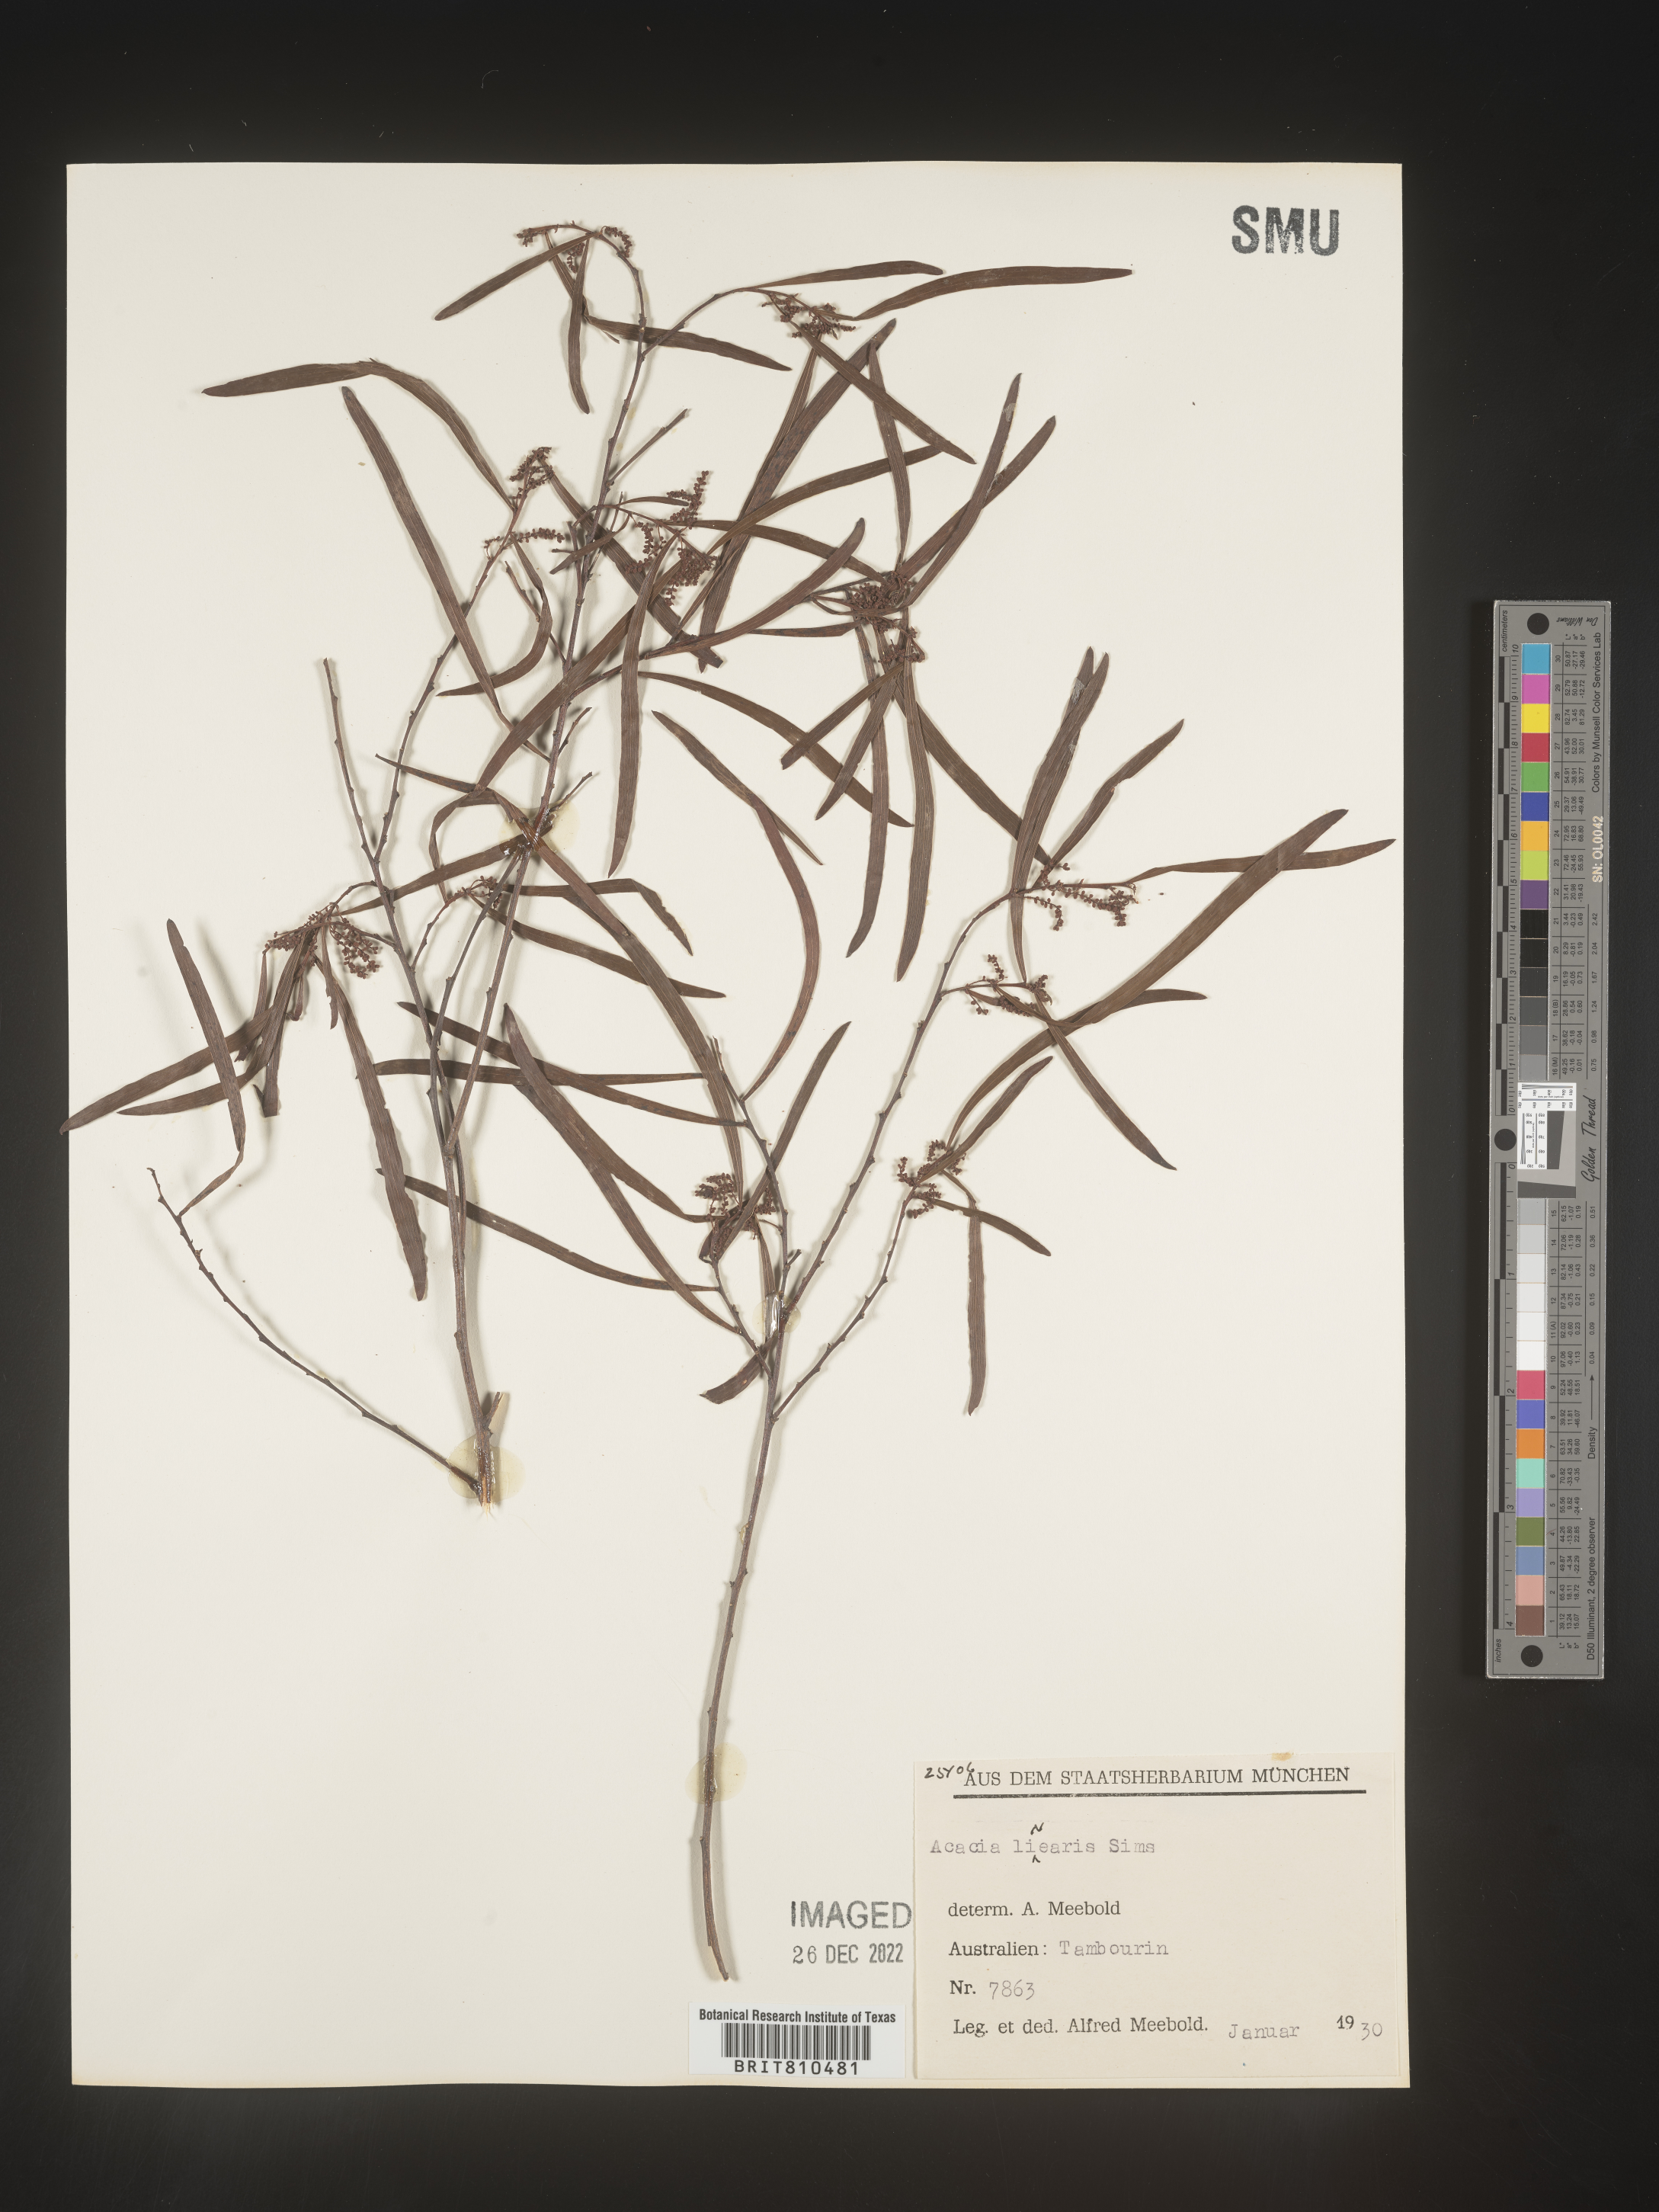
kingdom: Plantae
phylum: Tracheophyta
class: Magnoliopsida
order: Fabales
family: Fabaceae
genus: Acacia
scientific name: Acacia
